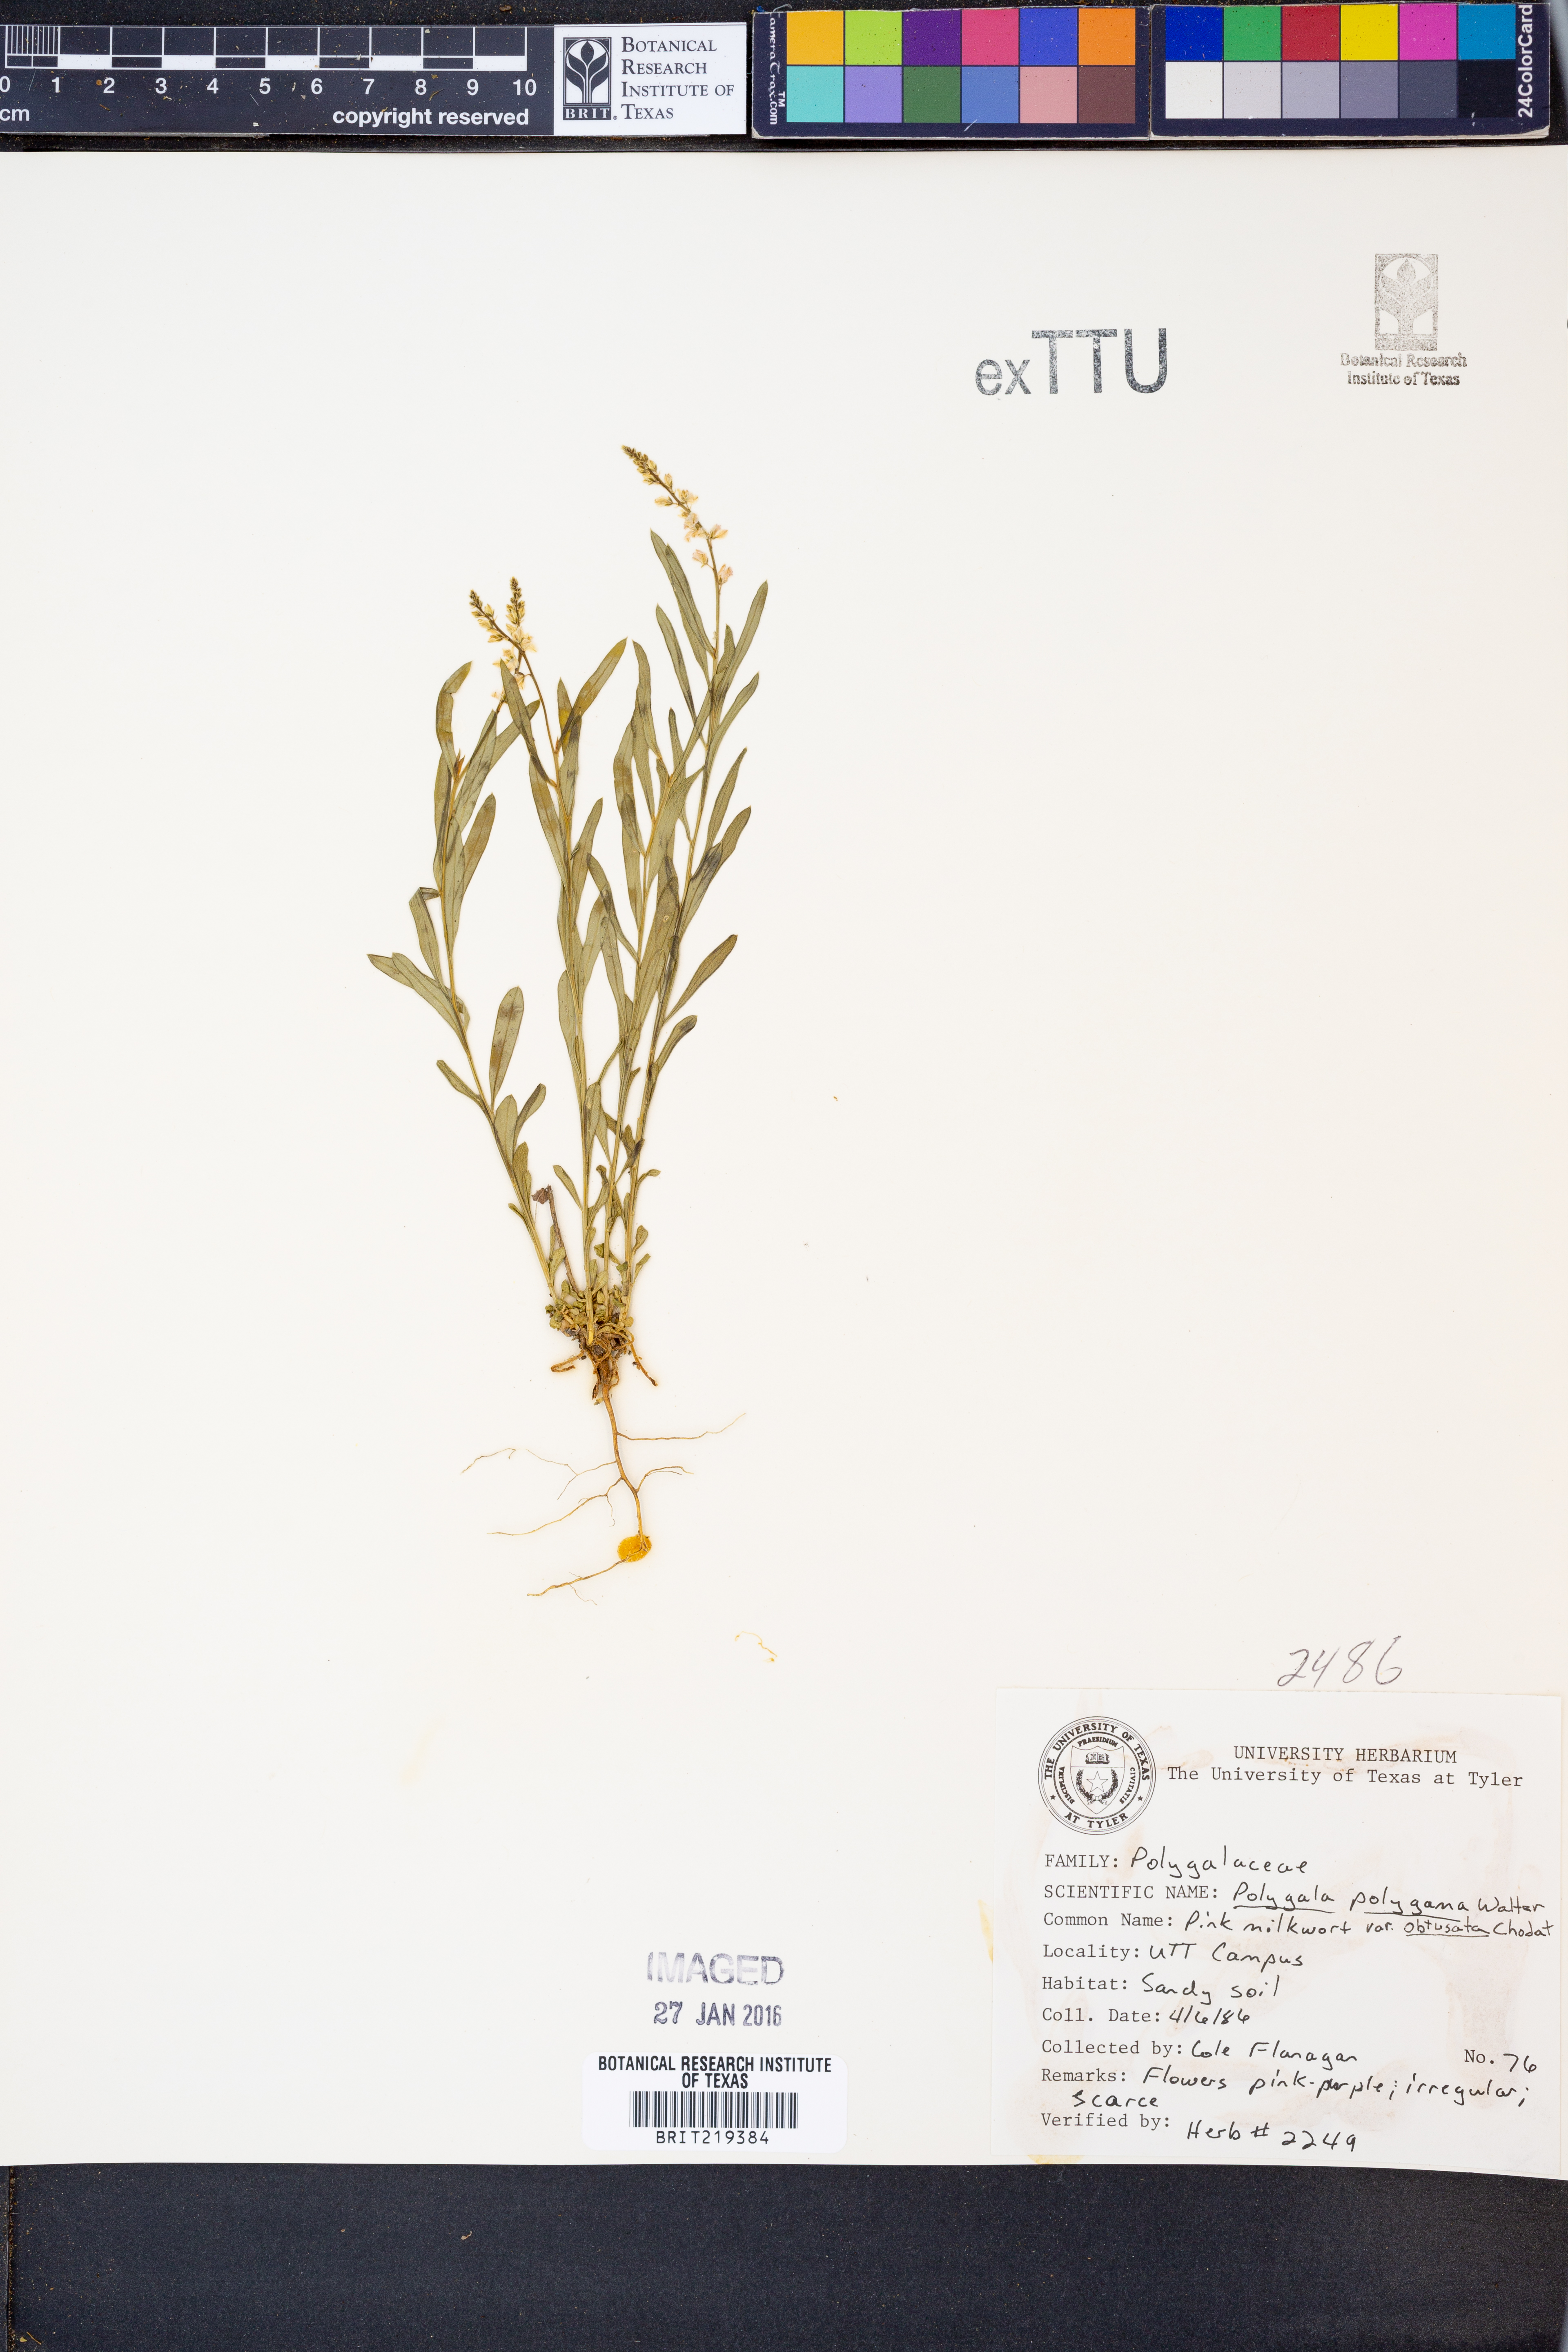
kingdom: Plantae
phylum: Tracheophyta
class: Magnoliopsida
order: Fabales
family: Polygalaceae
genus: Polygala
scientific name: Polygala polygama
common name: Bitter milkwort
